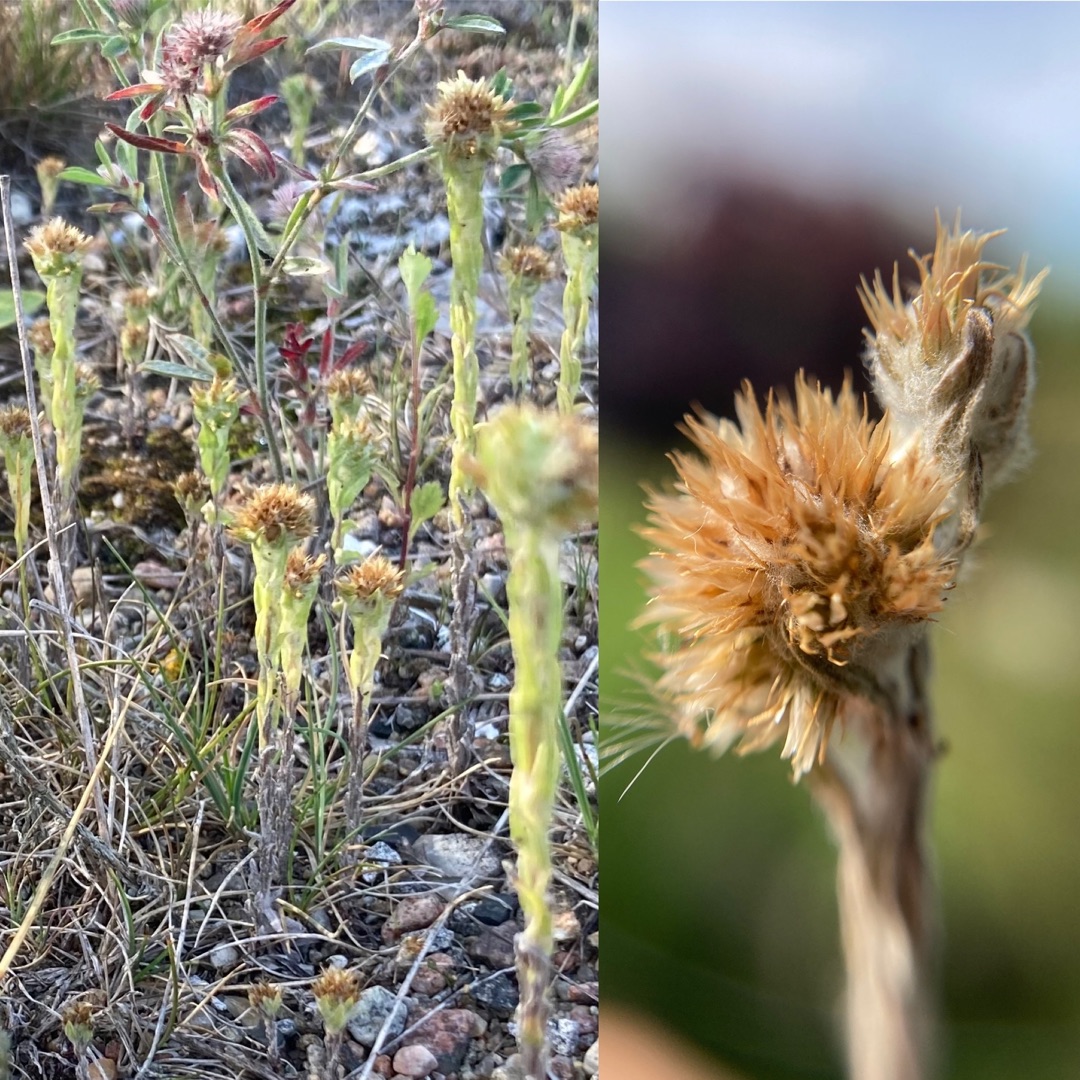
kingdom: Plantae
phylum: Tracheophyta
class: Magnoliopsida
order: Asterales
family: Asteraceae
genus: Filago
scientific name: Filago germanica
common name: Kugle-museurt
